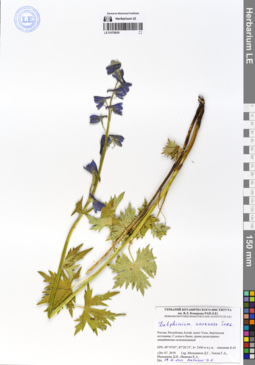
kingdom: Plantae
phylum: Tracheophyta
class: Magnoliopsida
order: Ranunculales
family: Ranunculaceae
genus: Delphinium
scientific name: Delphinium ukokense
